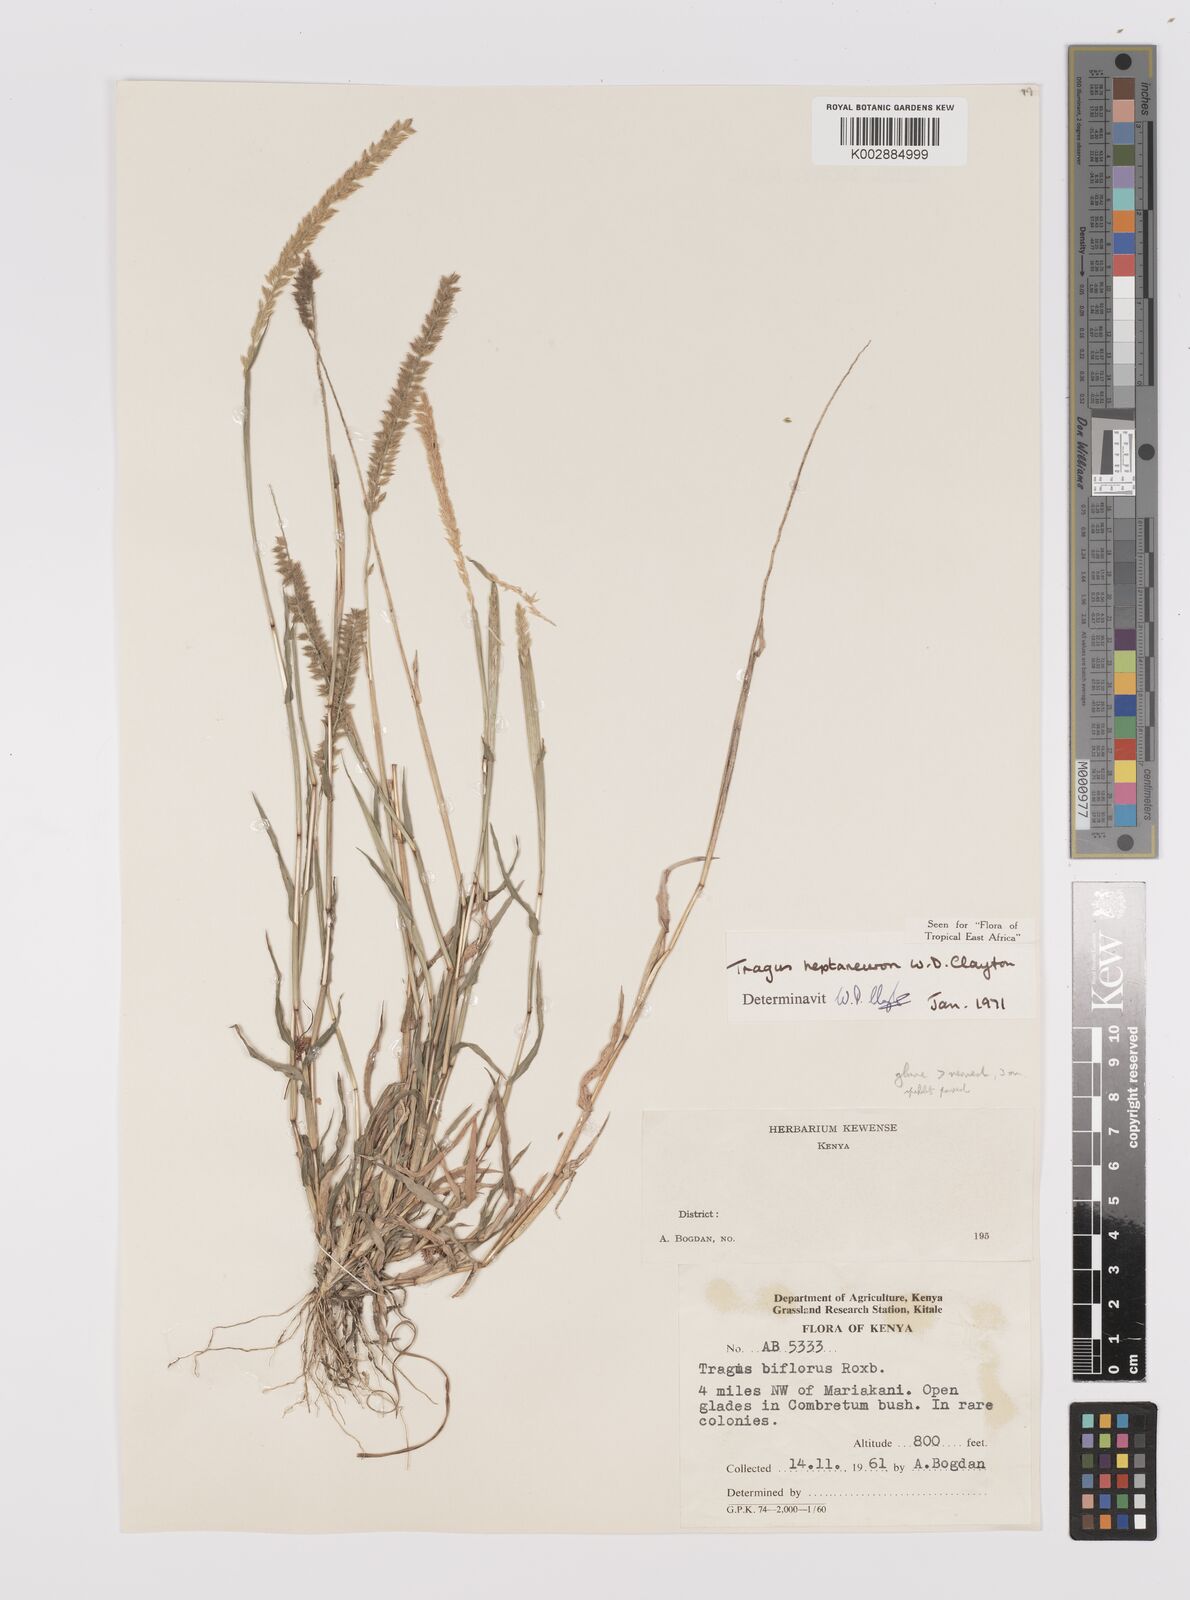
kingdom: Plantae
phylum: Tracheophyta
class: Liliopsida
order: Poales
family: Poaceae
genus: Tragus
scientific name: Tragus heptaneuron
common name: Kenya bur grass
